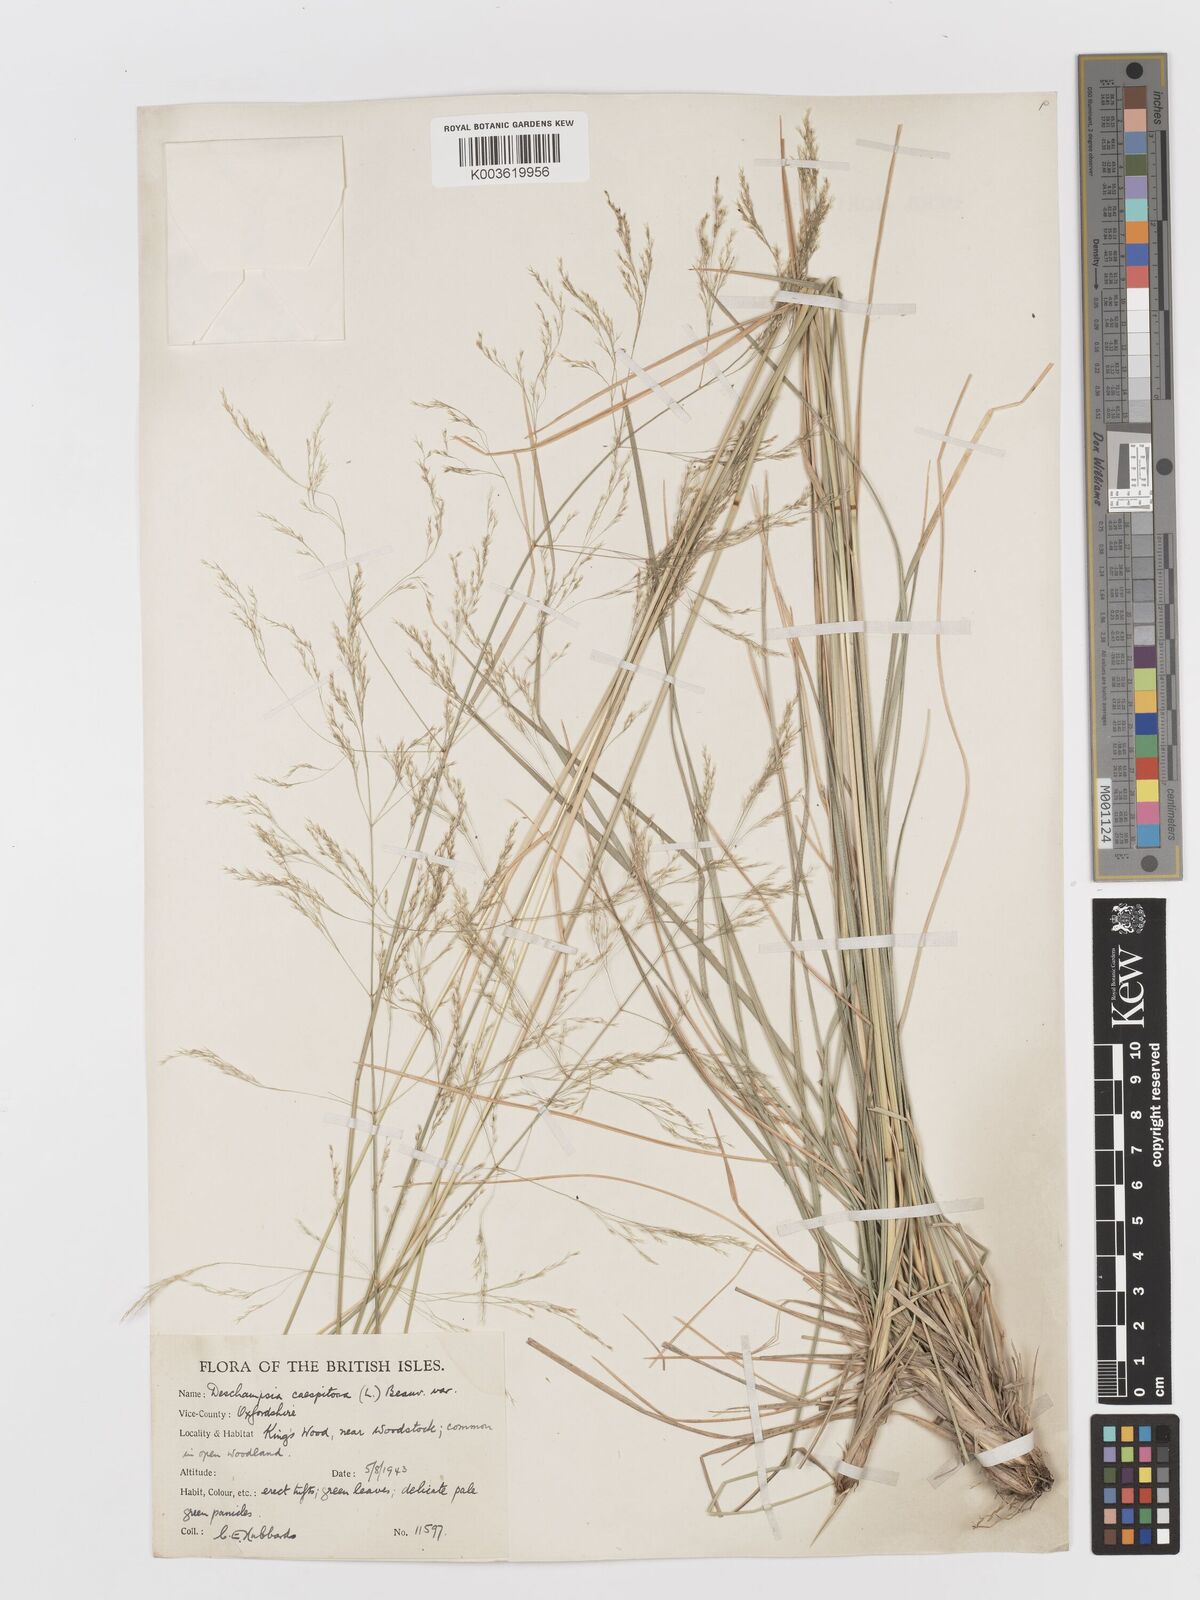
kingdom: Plantae
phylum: Tracheophyta
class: Liliopsida
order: Poales
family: Poaceae
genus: Deschampsia
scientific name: Deschampsia cespitosa
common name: Tufted hair-grass
